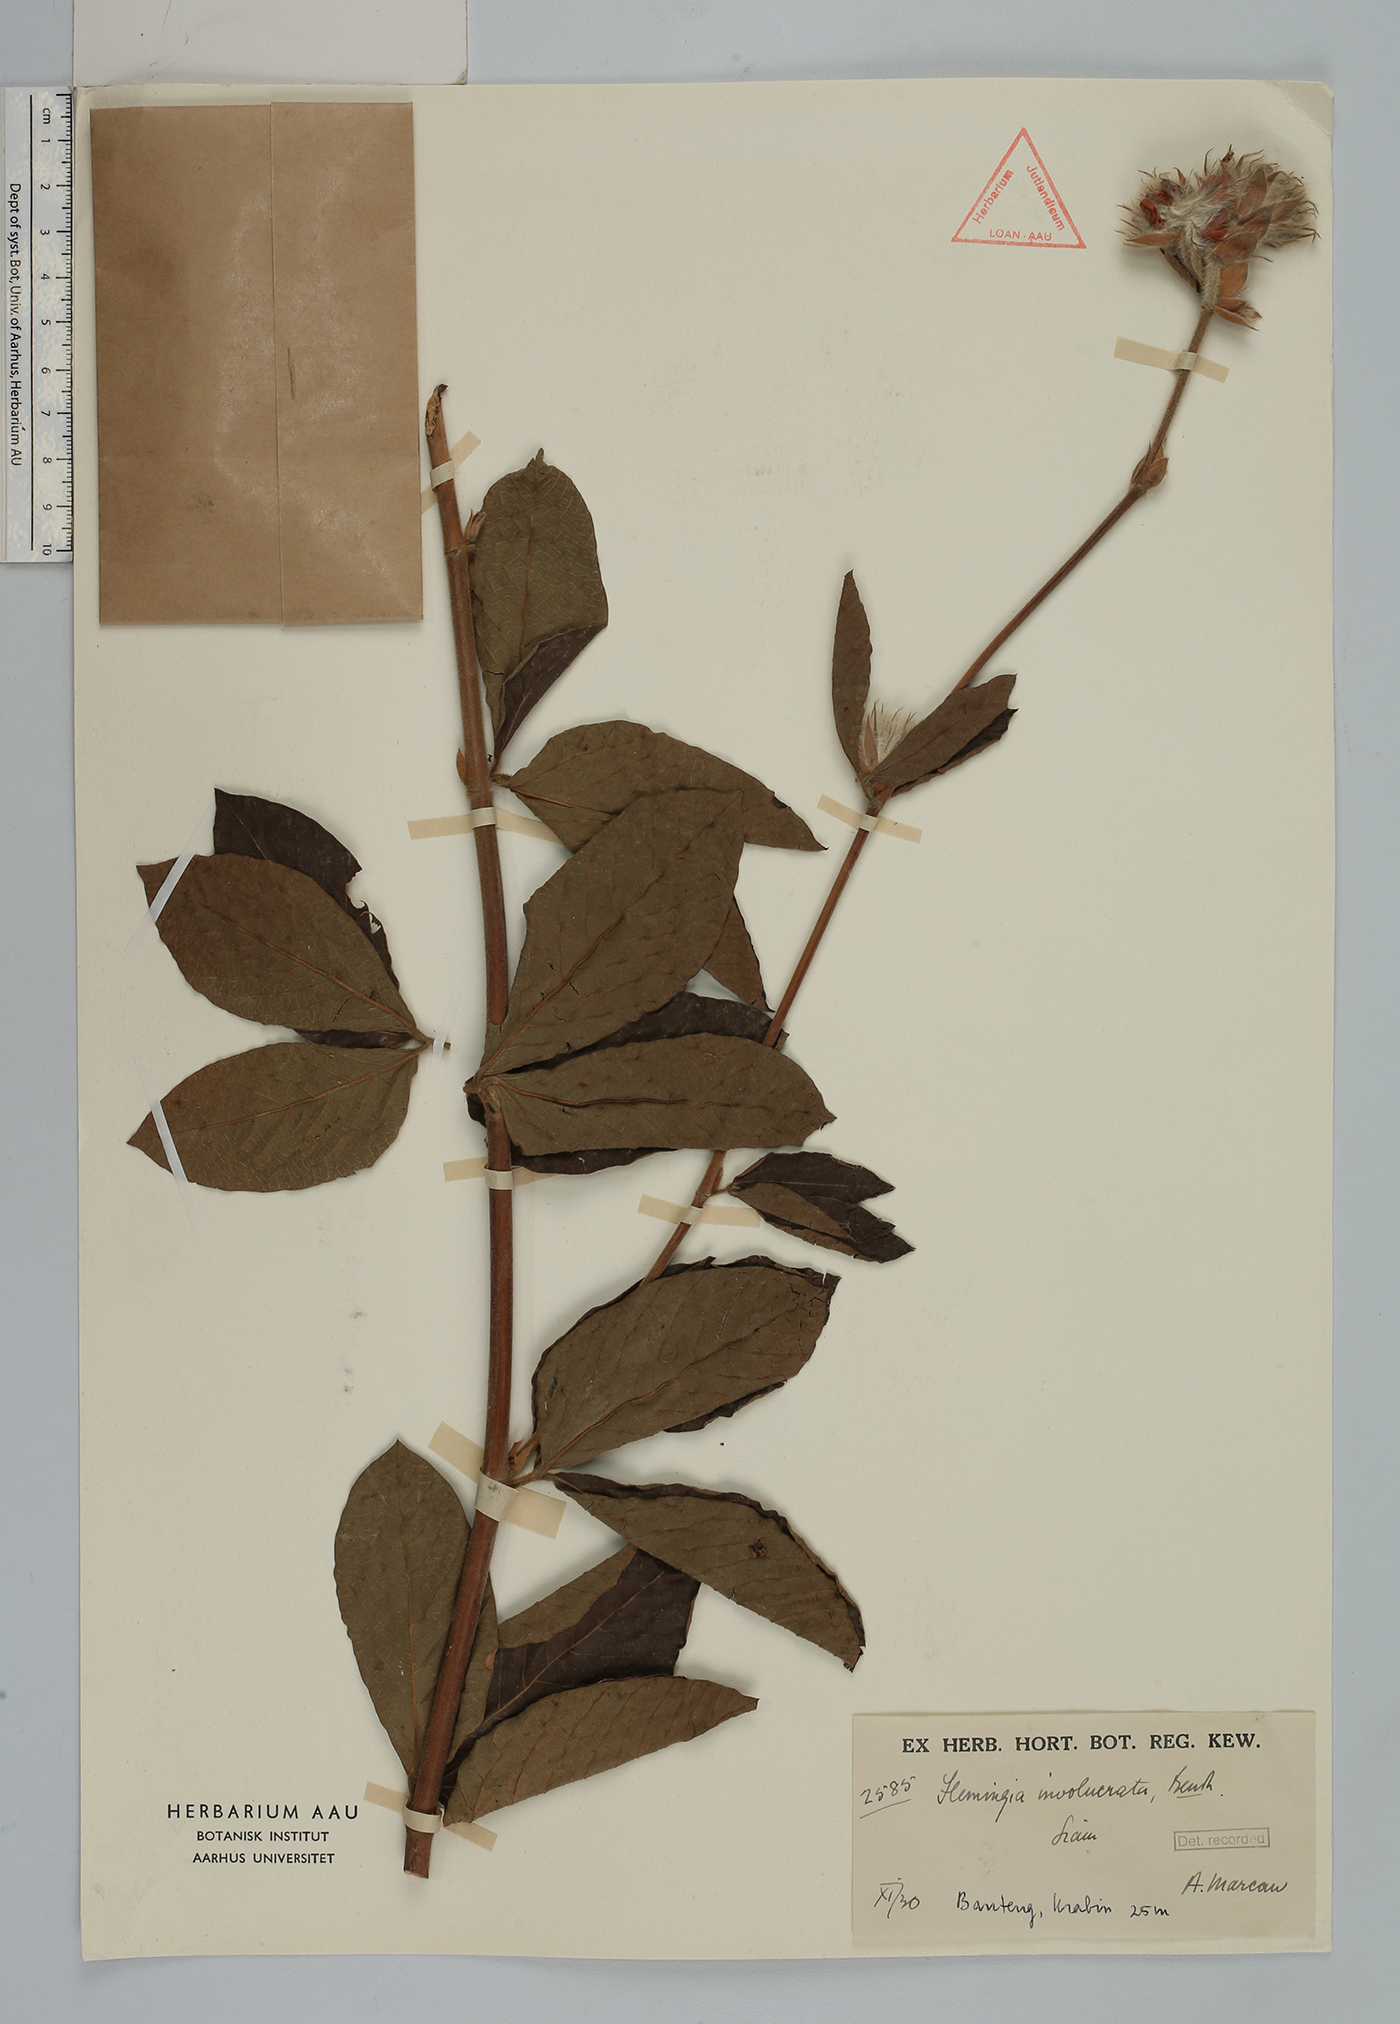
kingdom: Plantae
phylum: Tracheophyta
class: Magnoliopsida
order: Fabales
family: Fabaceae
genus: Flemingia
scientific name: Flemingia trifoliata
